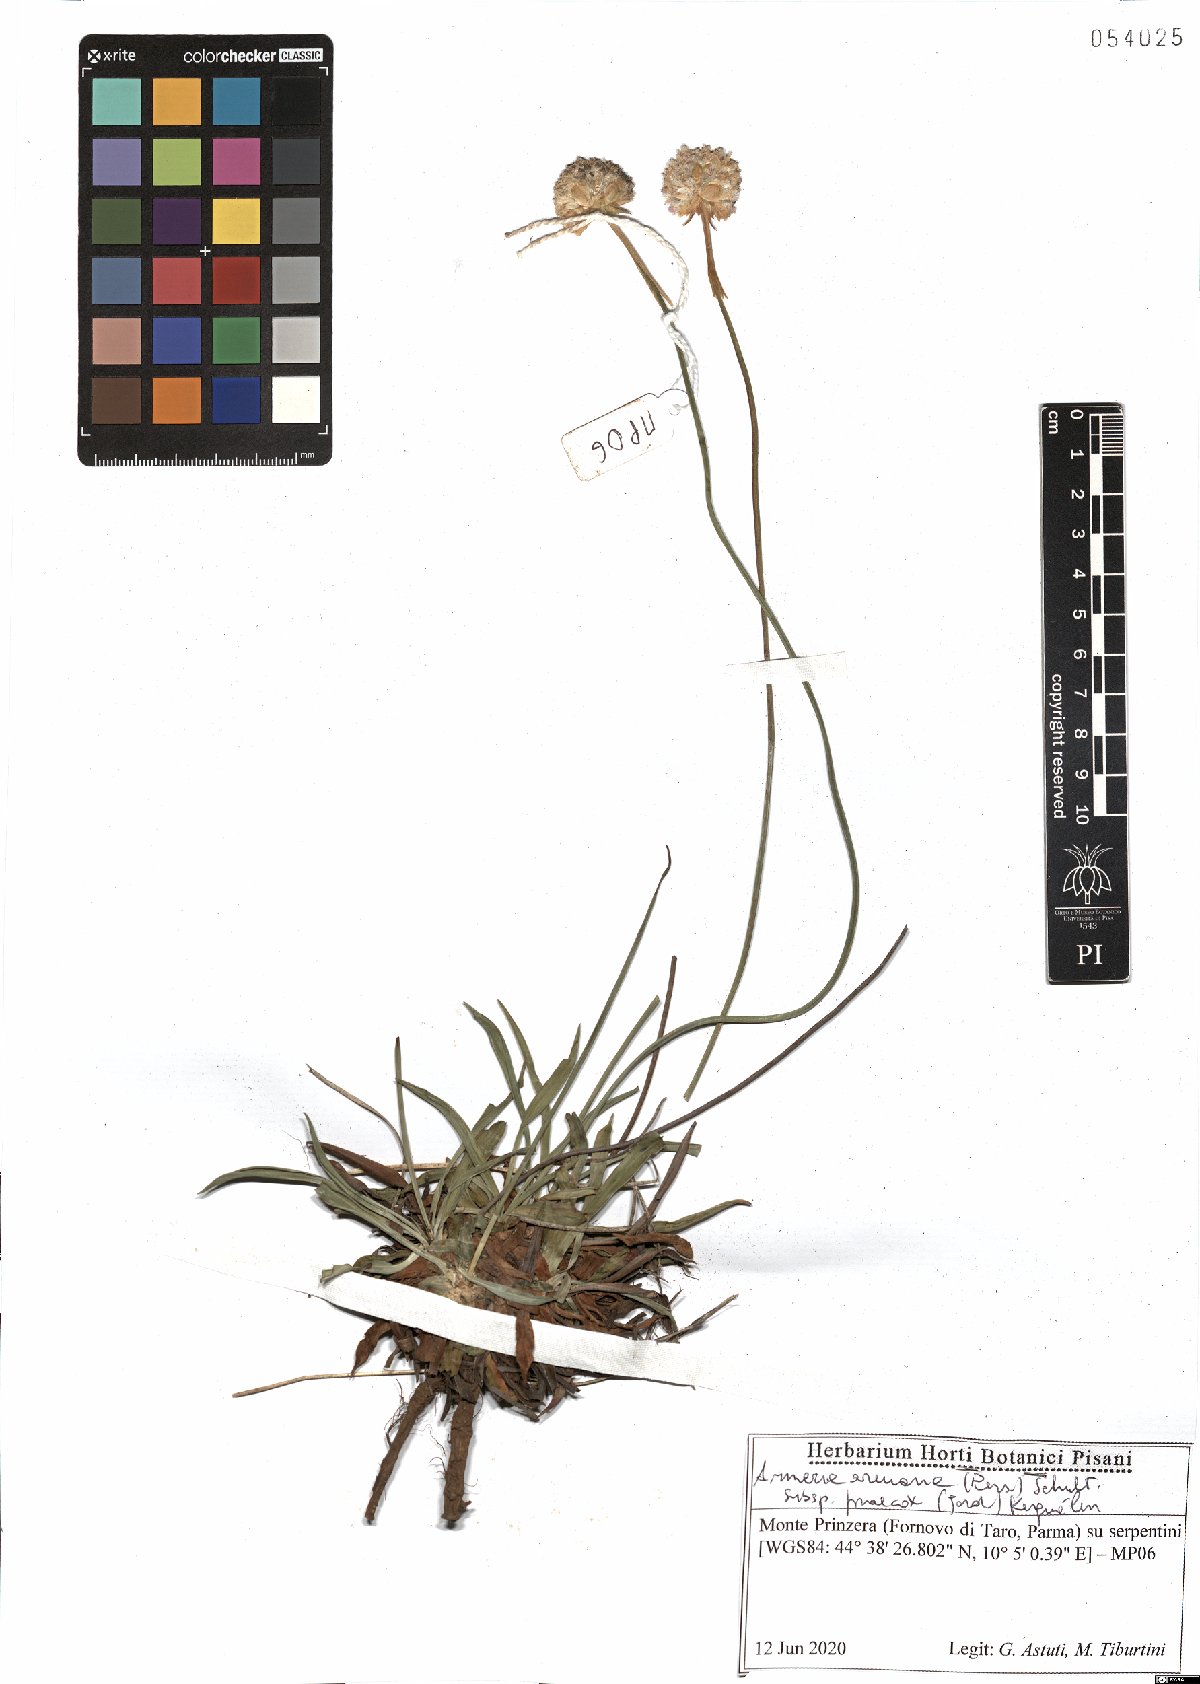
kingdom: Plantae
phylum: Tracheophyta
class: Magnoliopsida
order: Caryophyllales
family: Plumbaginaceae
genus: Armeria
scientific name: Armeria arenaria
